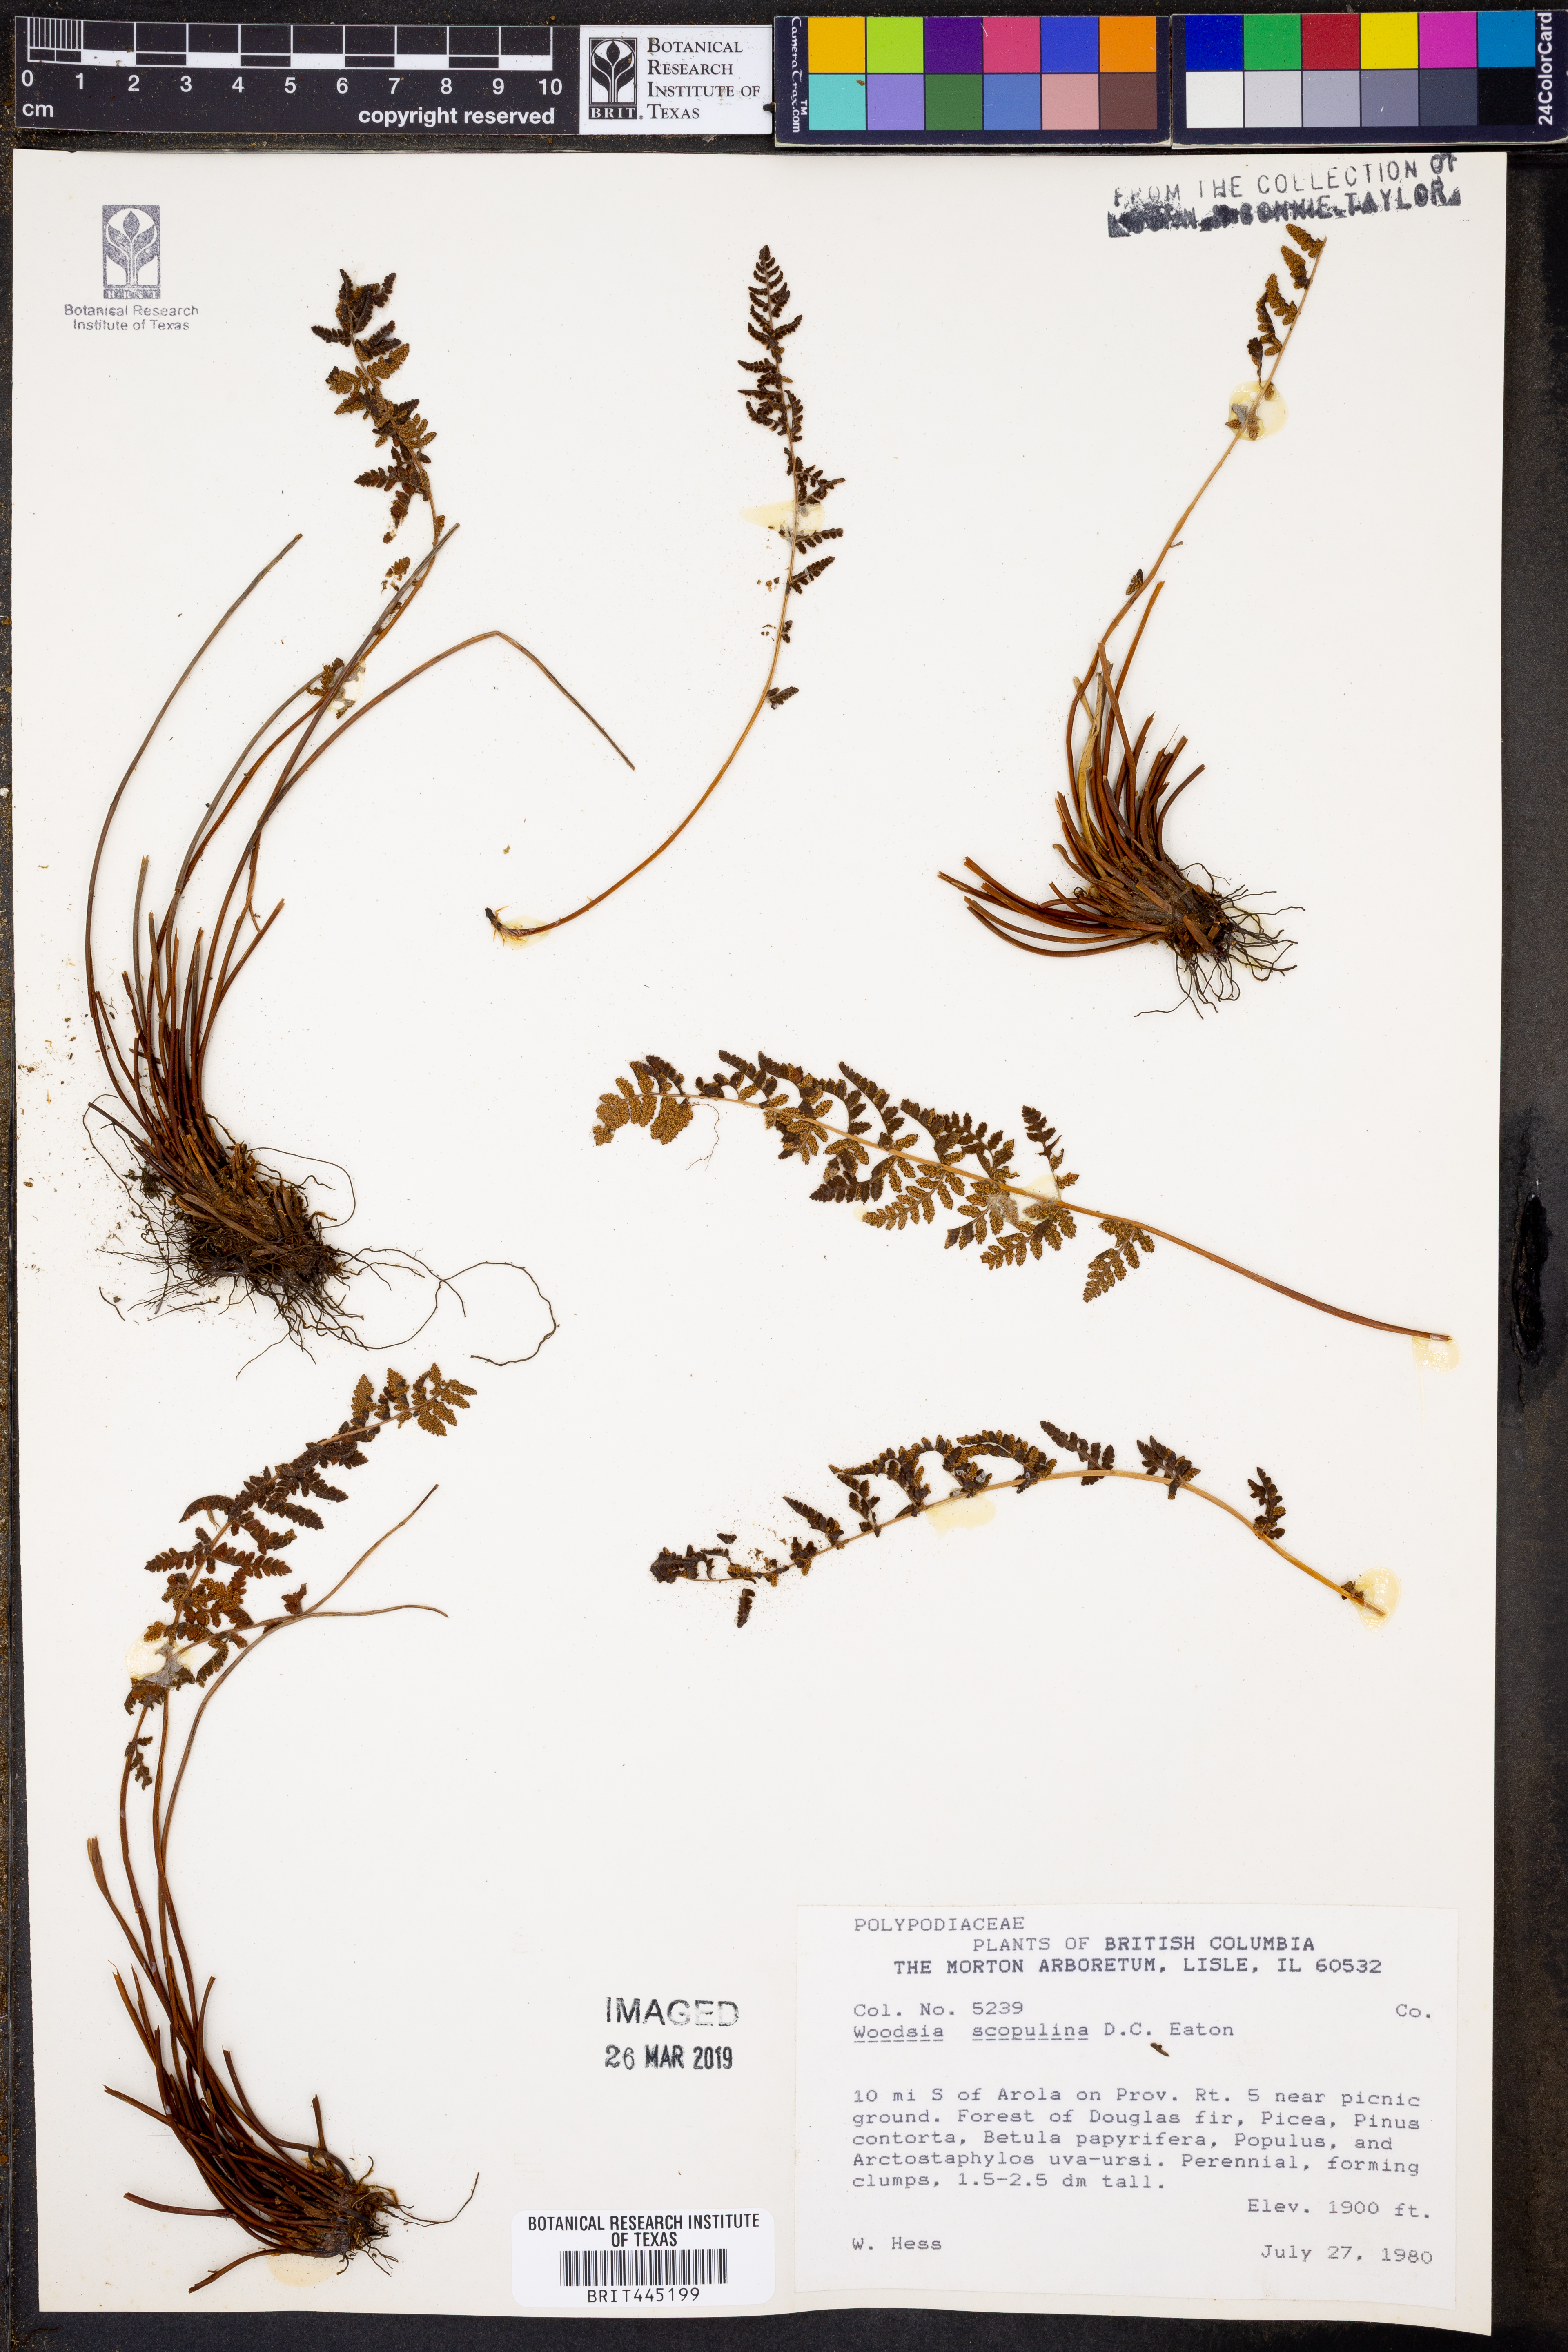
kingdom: Plantae
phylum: Tracheophyta
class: Polypodiopsida
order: Polypodiales
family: Woodsiaceae
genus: Physematium
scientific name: Physematium scopulinum
